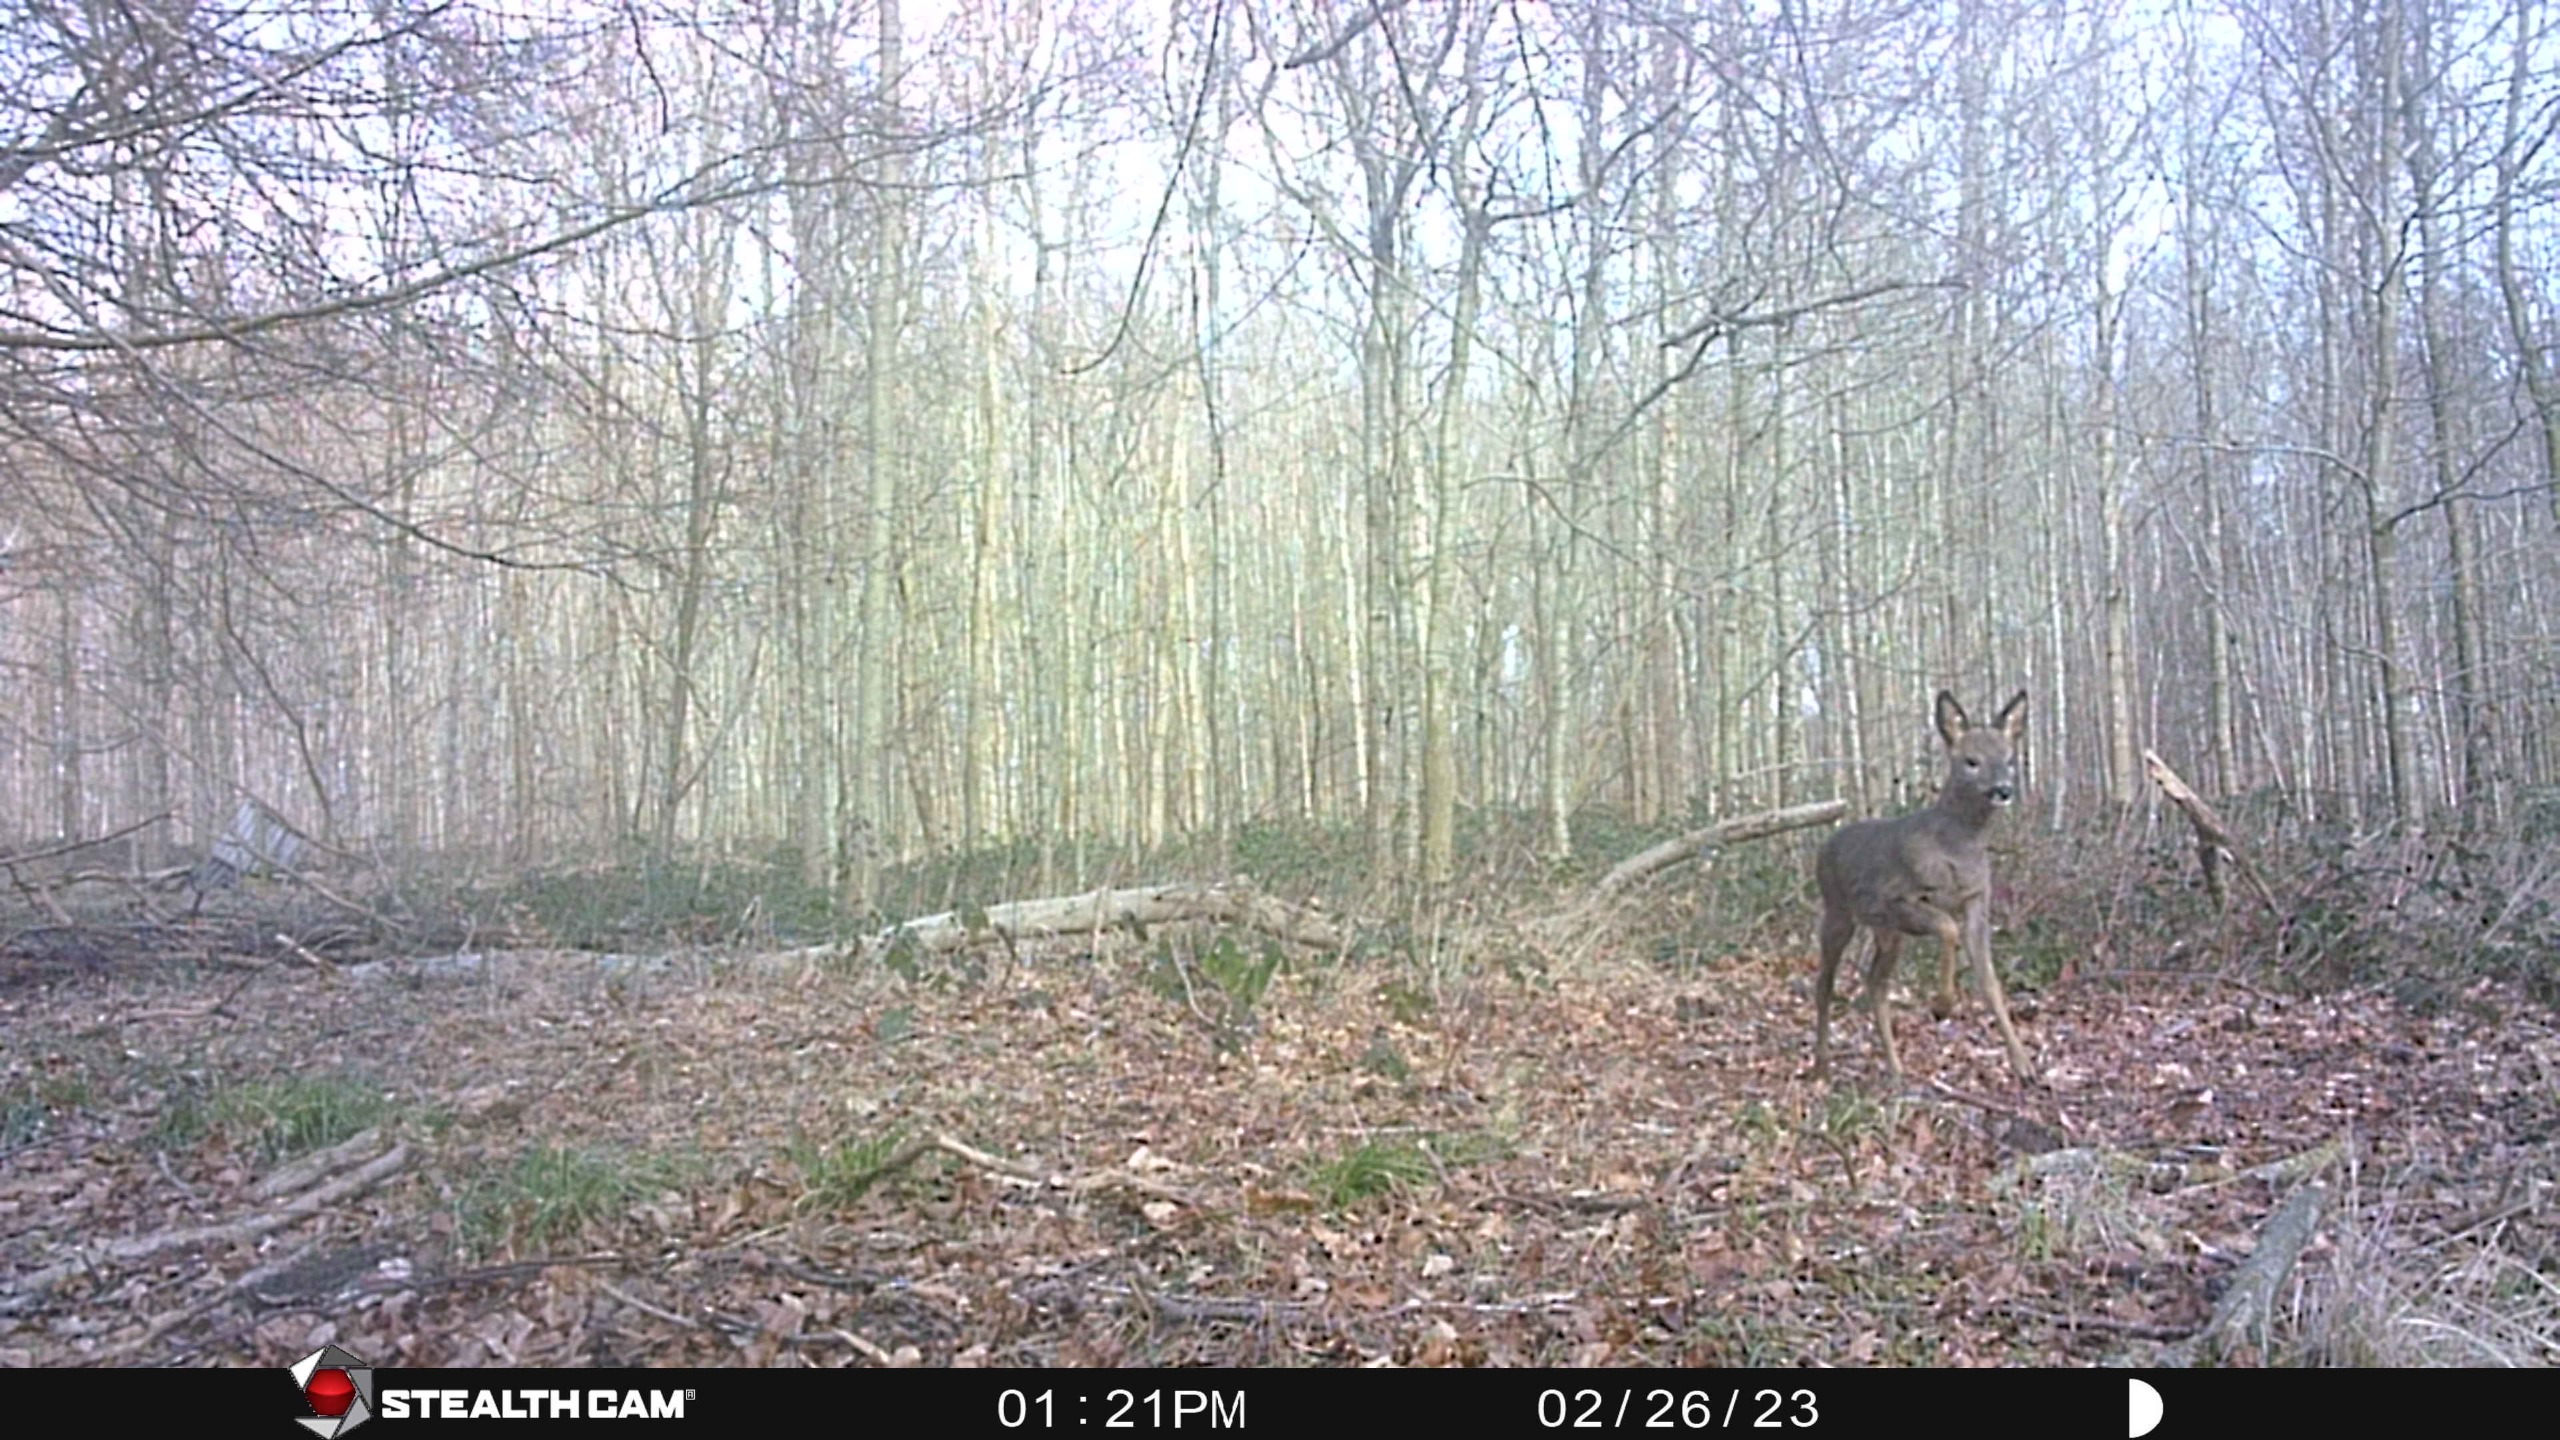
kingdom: Animalia
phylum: Chordata
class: Mammalia
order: Artiodactyla
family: Cervidae
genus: Capreolus
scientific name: Capreolus capreolus
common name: Rådyr
